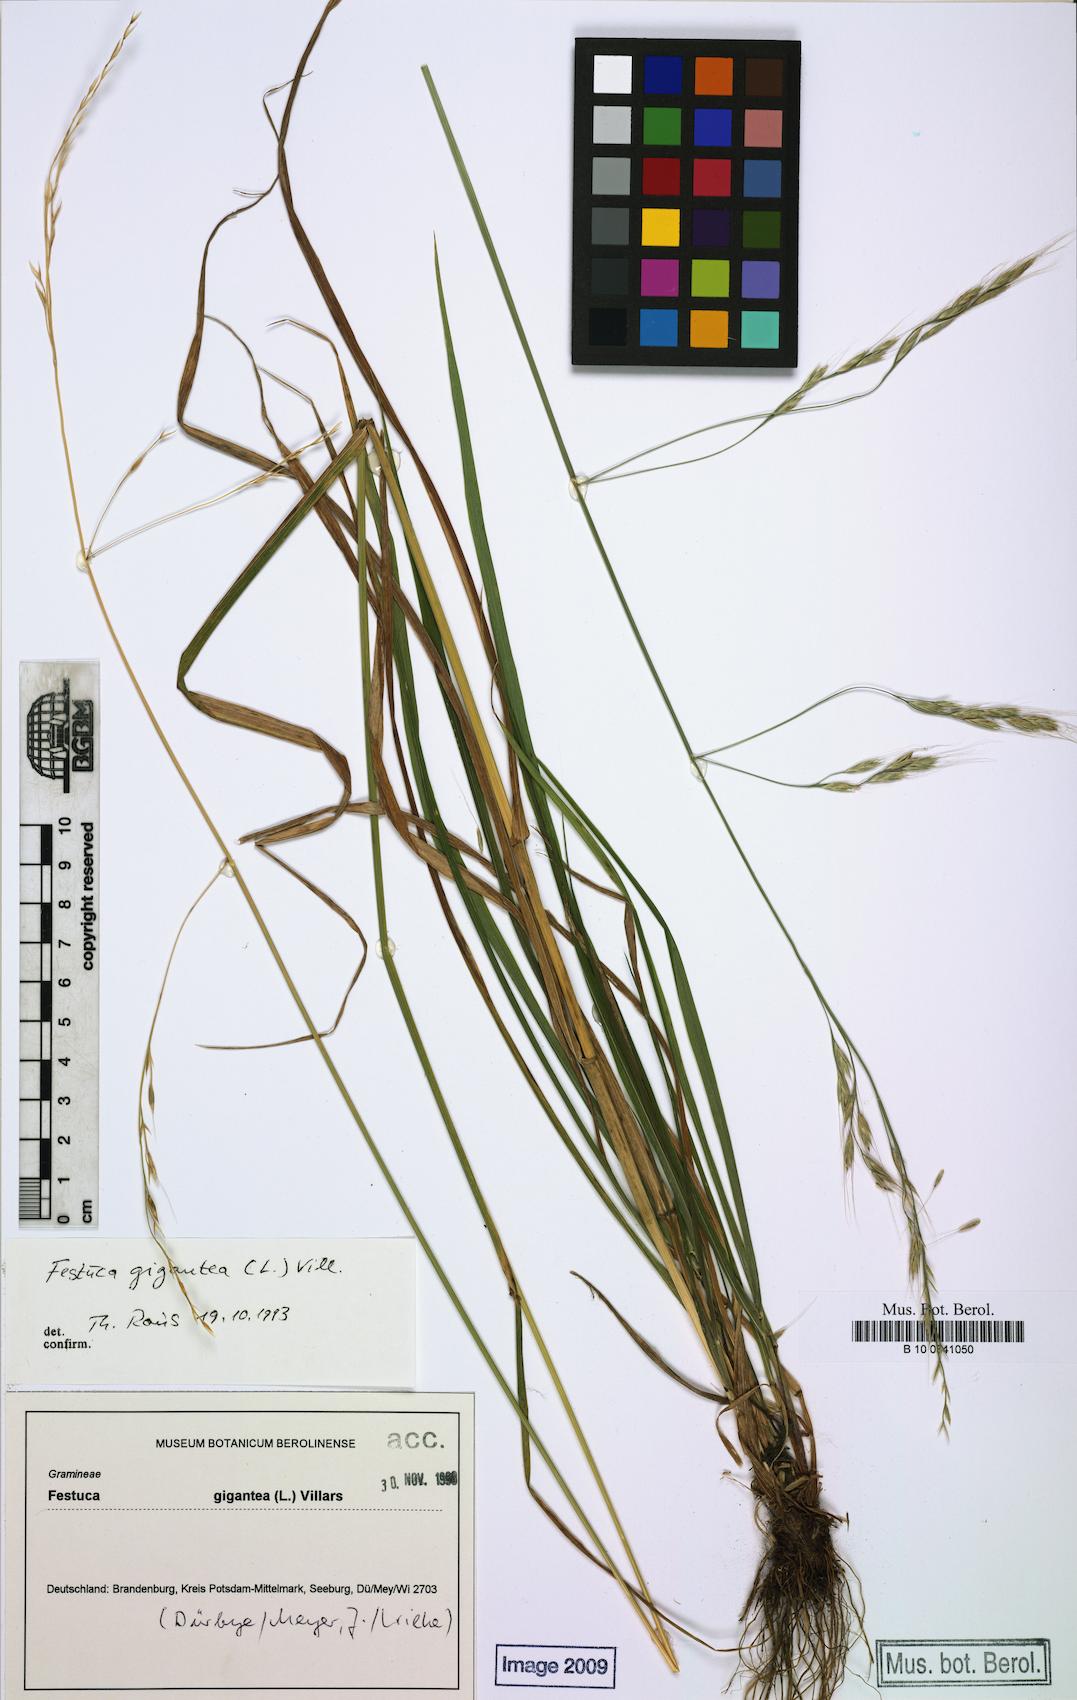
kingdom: Plantae
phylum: Tracheophyta
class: Liliopsida
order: Poales
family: Poaceae
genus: Lolium
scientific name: Lolium giganteum
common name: Giant fescue
